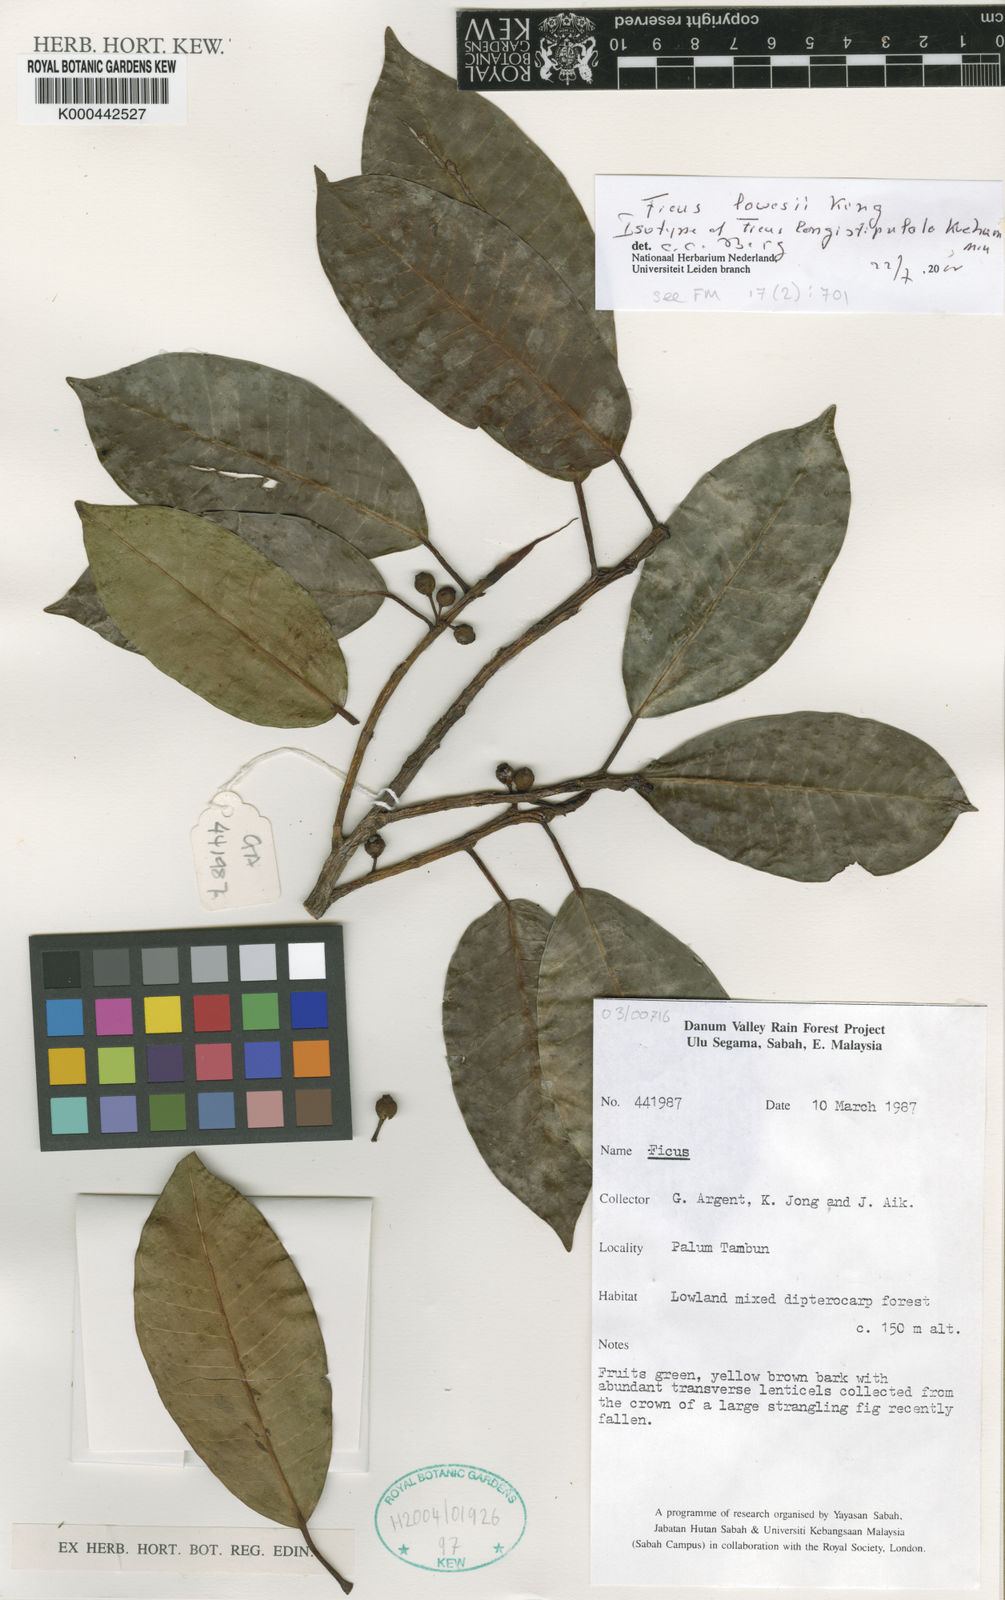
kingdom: Plantae
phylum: Tracheophyta
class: Magnoliopsida
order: Rosales
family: Moraceae
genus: Ficus
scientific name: Ficus lawesii
